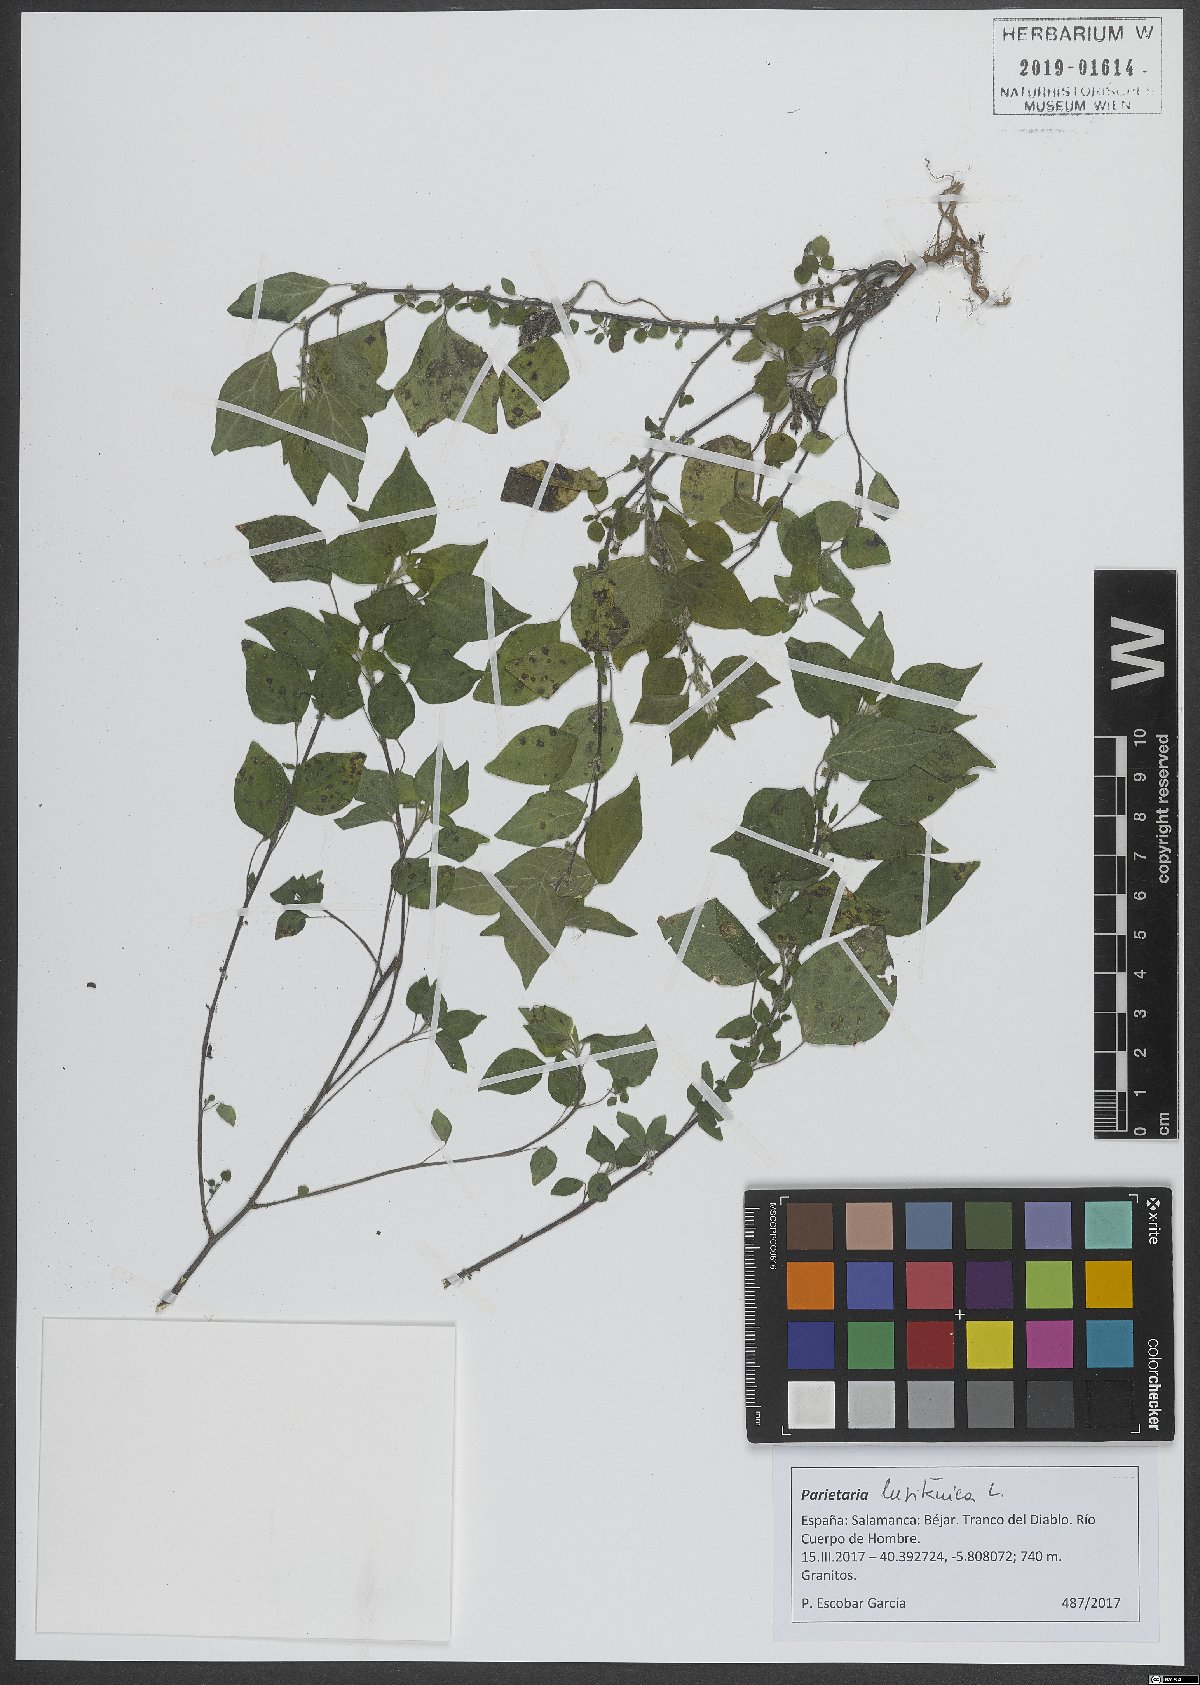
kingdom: Plantae
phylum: Tracheophyta
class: Magnoliopsida
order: Rosales
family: Urticaceae
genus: Parietaria
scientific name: Parietaria lusitanica
